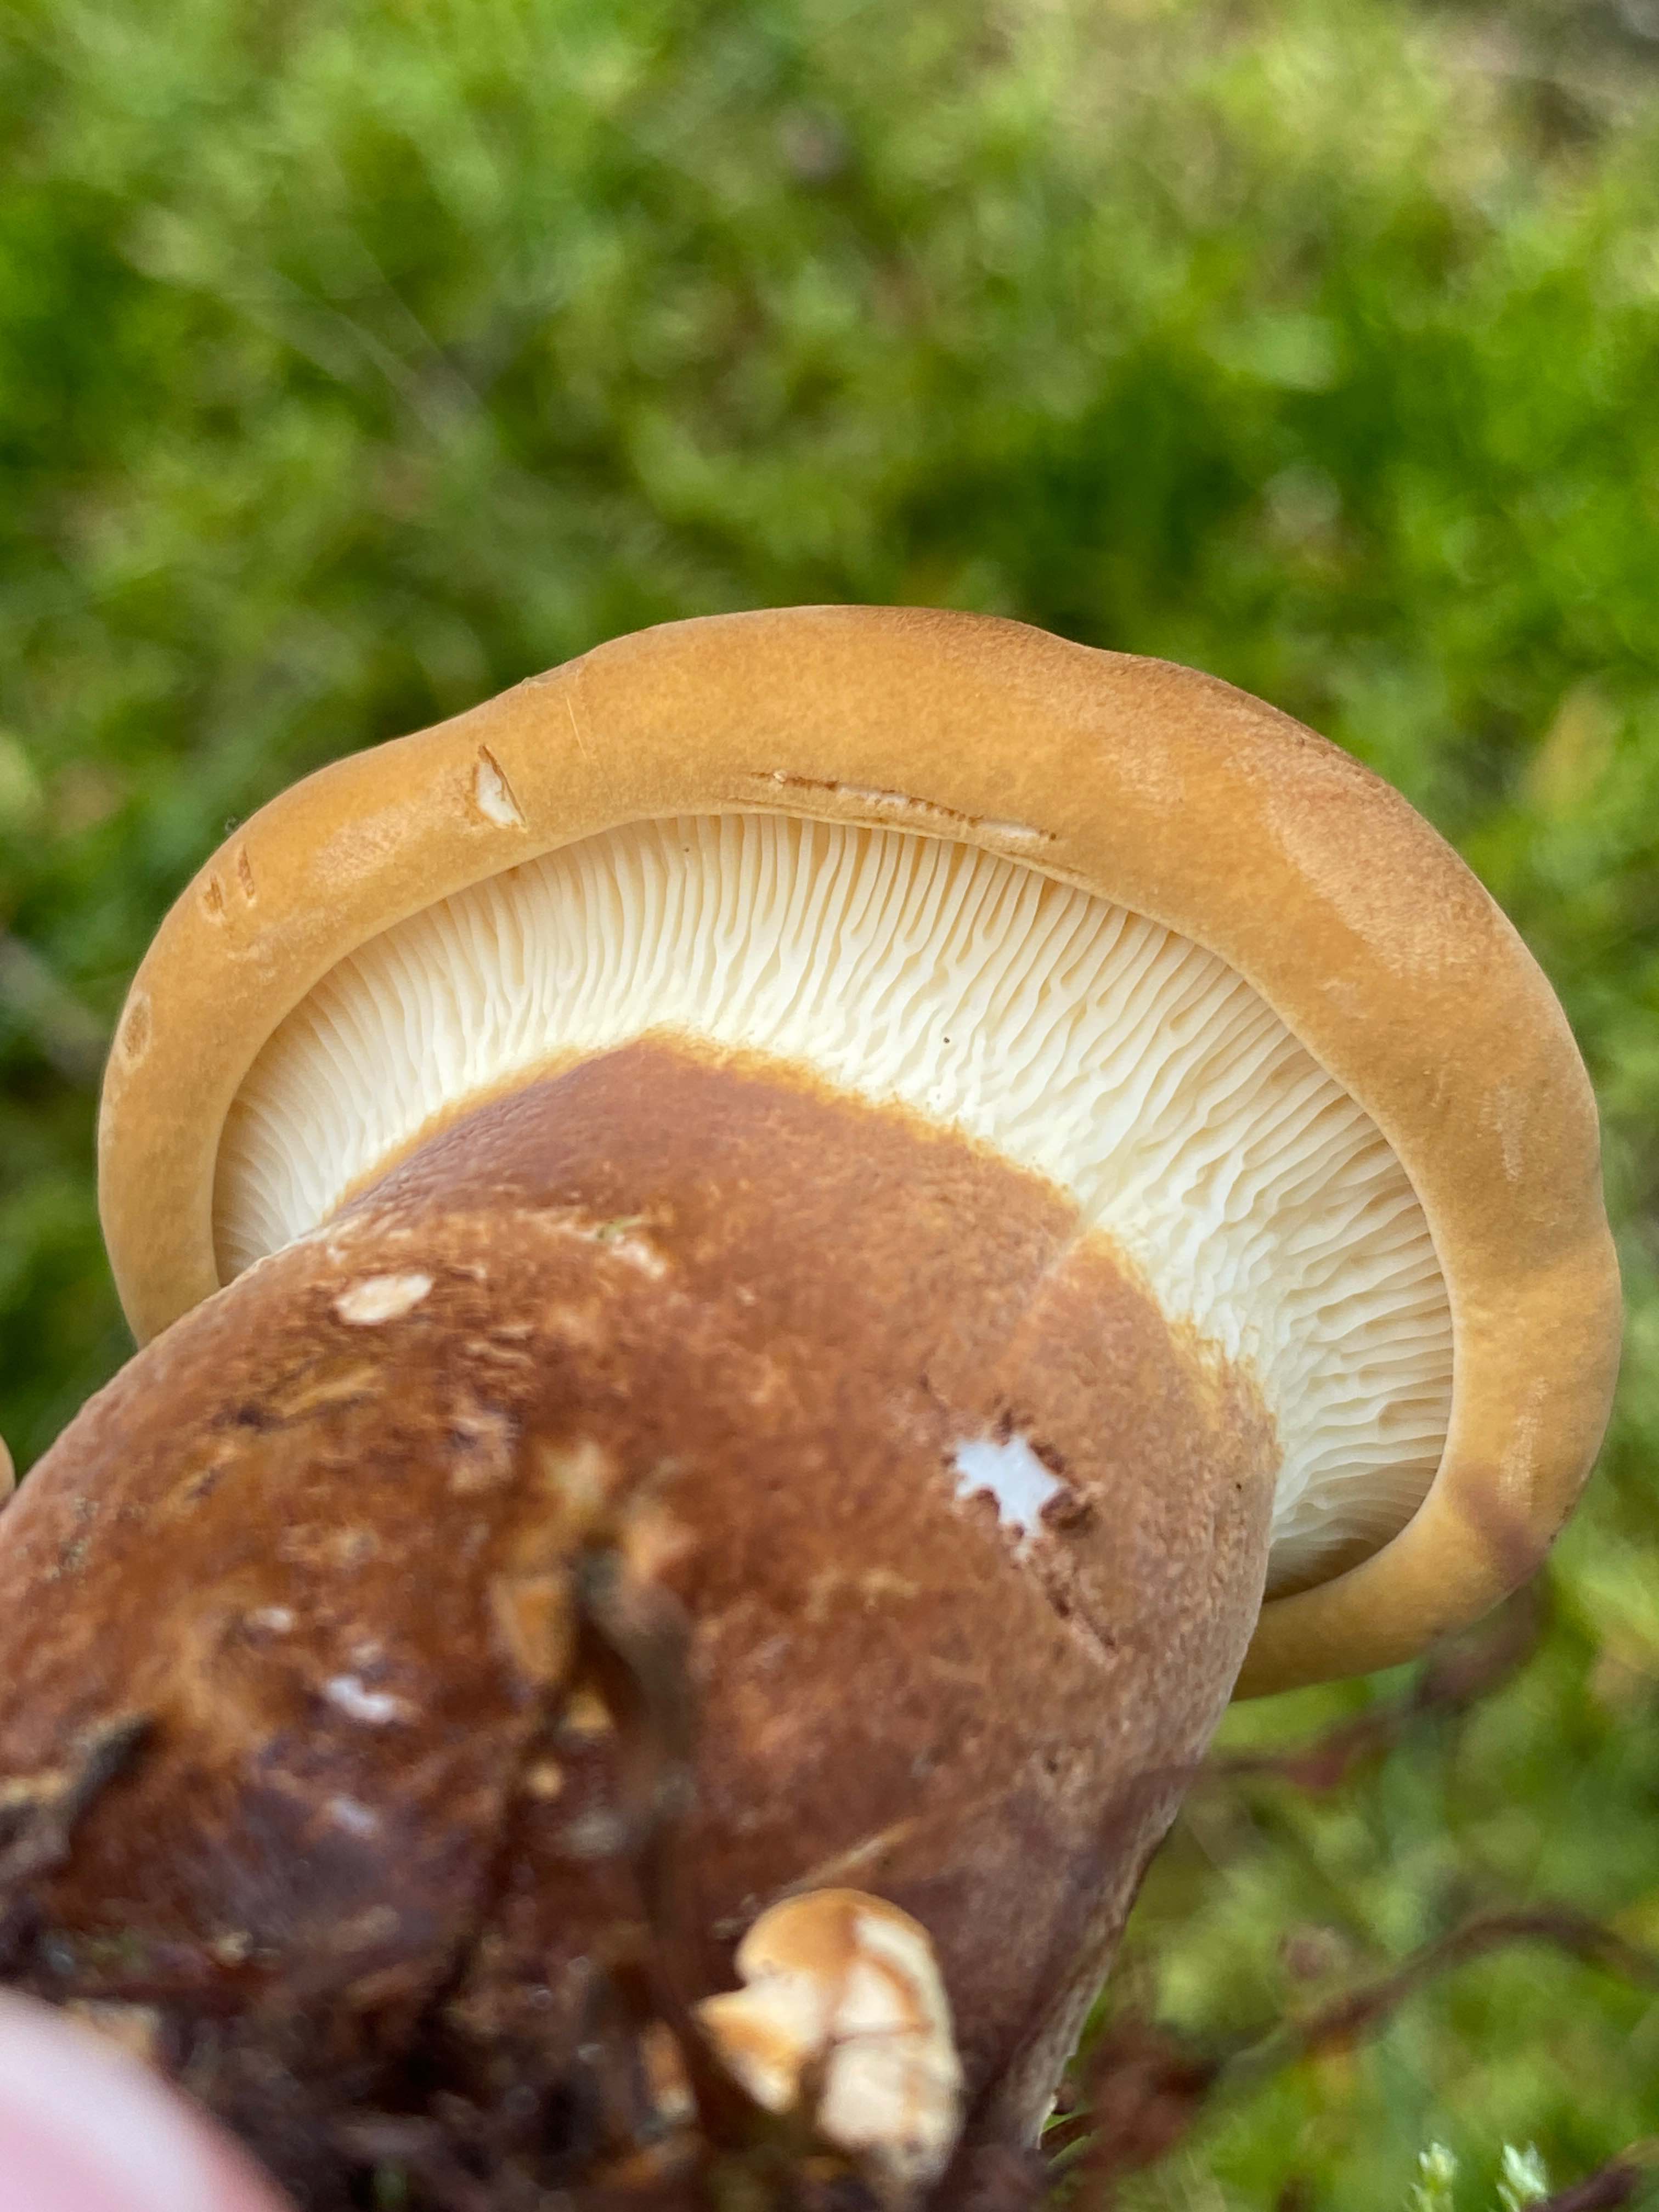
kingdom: Fungi
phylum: Basidiomycota
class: Agaricomycetes
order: Boletales
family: Tapinellaceae
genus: Tapinella
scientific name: Tapinella atrotomentosa
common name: sortfiltet viftesvamp
